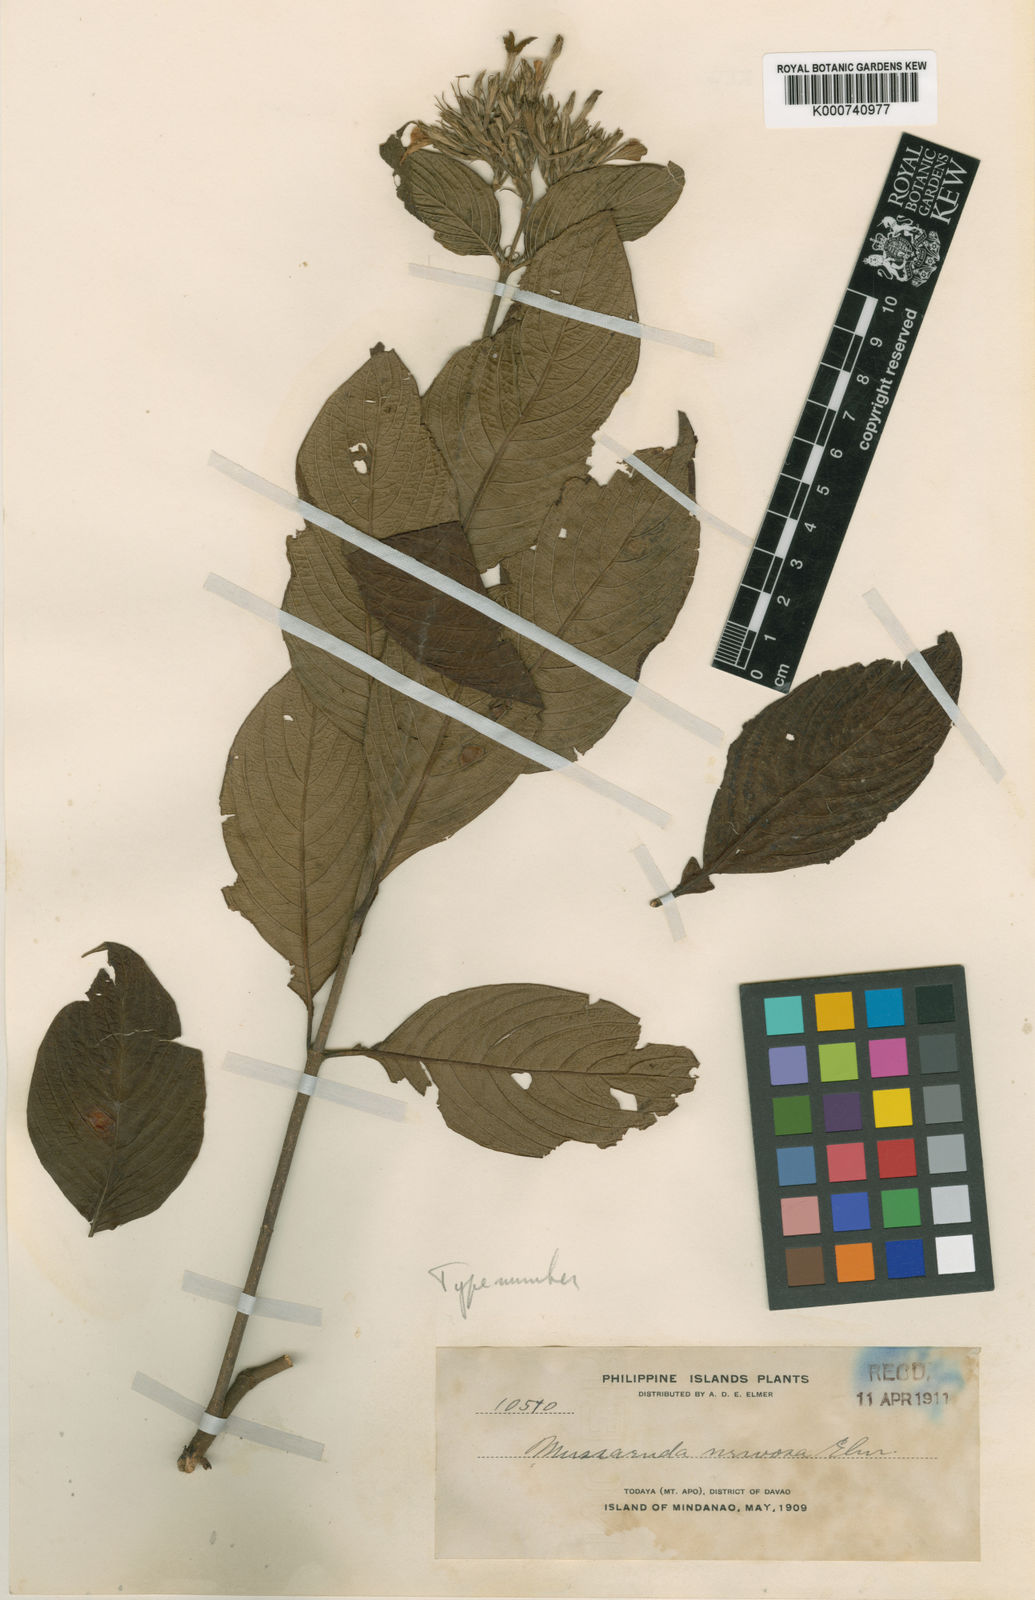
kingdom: Plantae
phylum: Tracheophyta
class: Magnoliopsida
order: Gentianales
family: Rubiaceae
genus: Mussaenda
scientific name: Mussaenda nervosa
